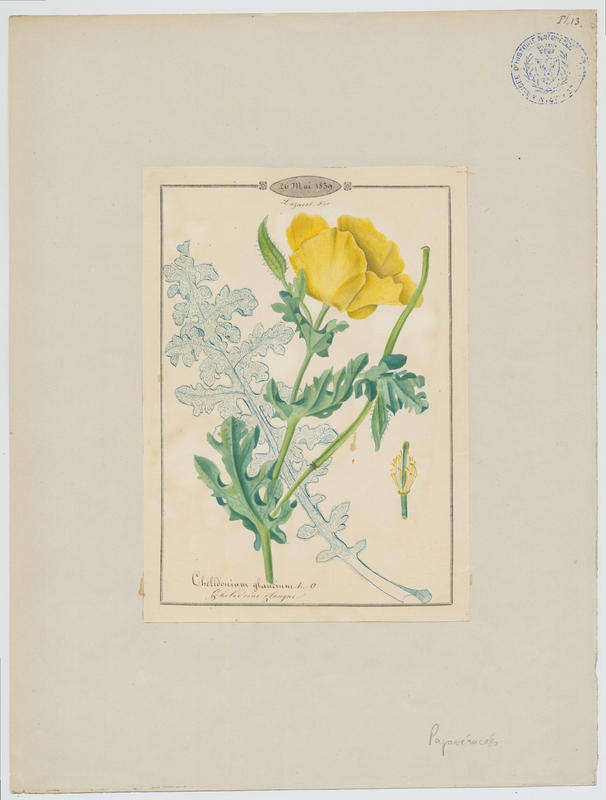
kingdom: Plantae
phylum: Tracheophyta
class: Magnoliopsida
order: Ranunculales
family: Papaveraceae
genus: Glaucium
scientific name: Glaucium flavum
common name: Yellow horned-poppy
